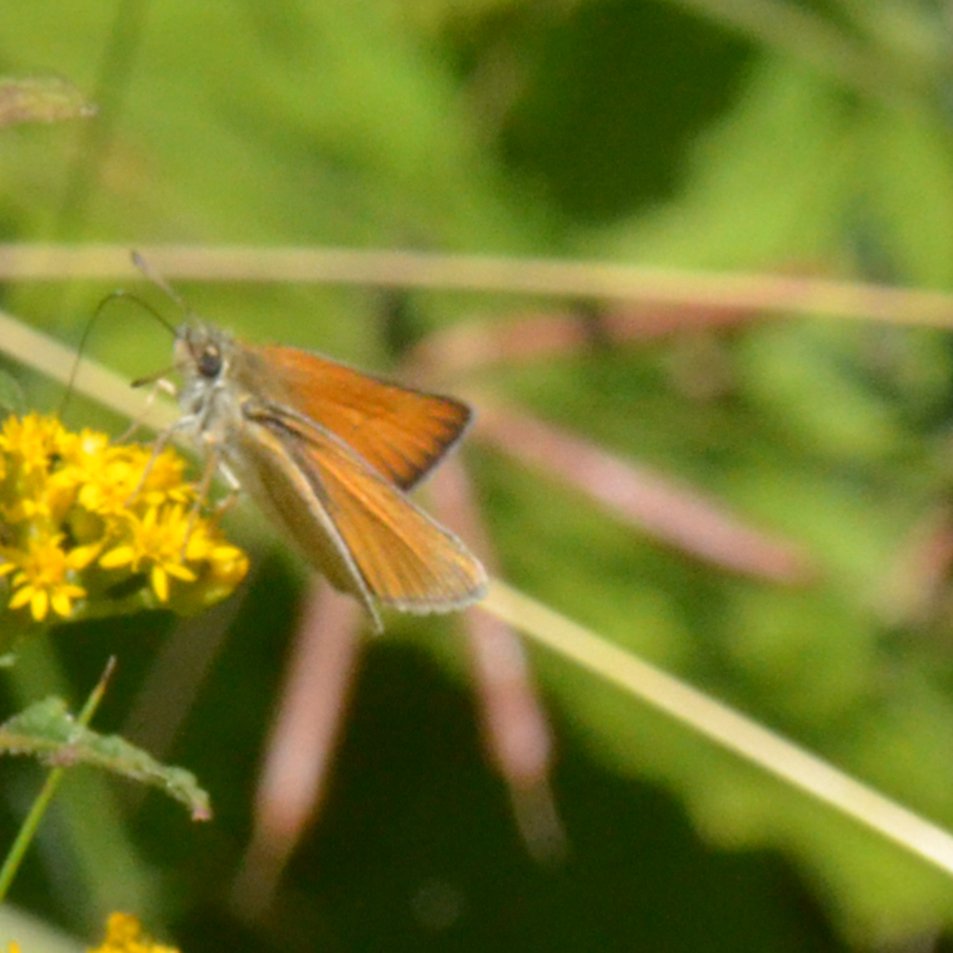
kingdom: Animalia
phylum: Arthropoda
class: Insecta
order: Lepidoptera
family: Hesperiidae
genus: Thymelicus
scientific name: Thymelicus lineola
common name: European Skipper
